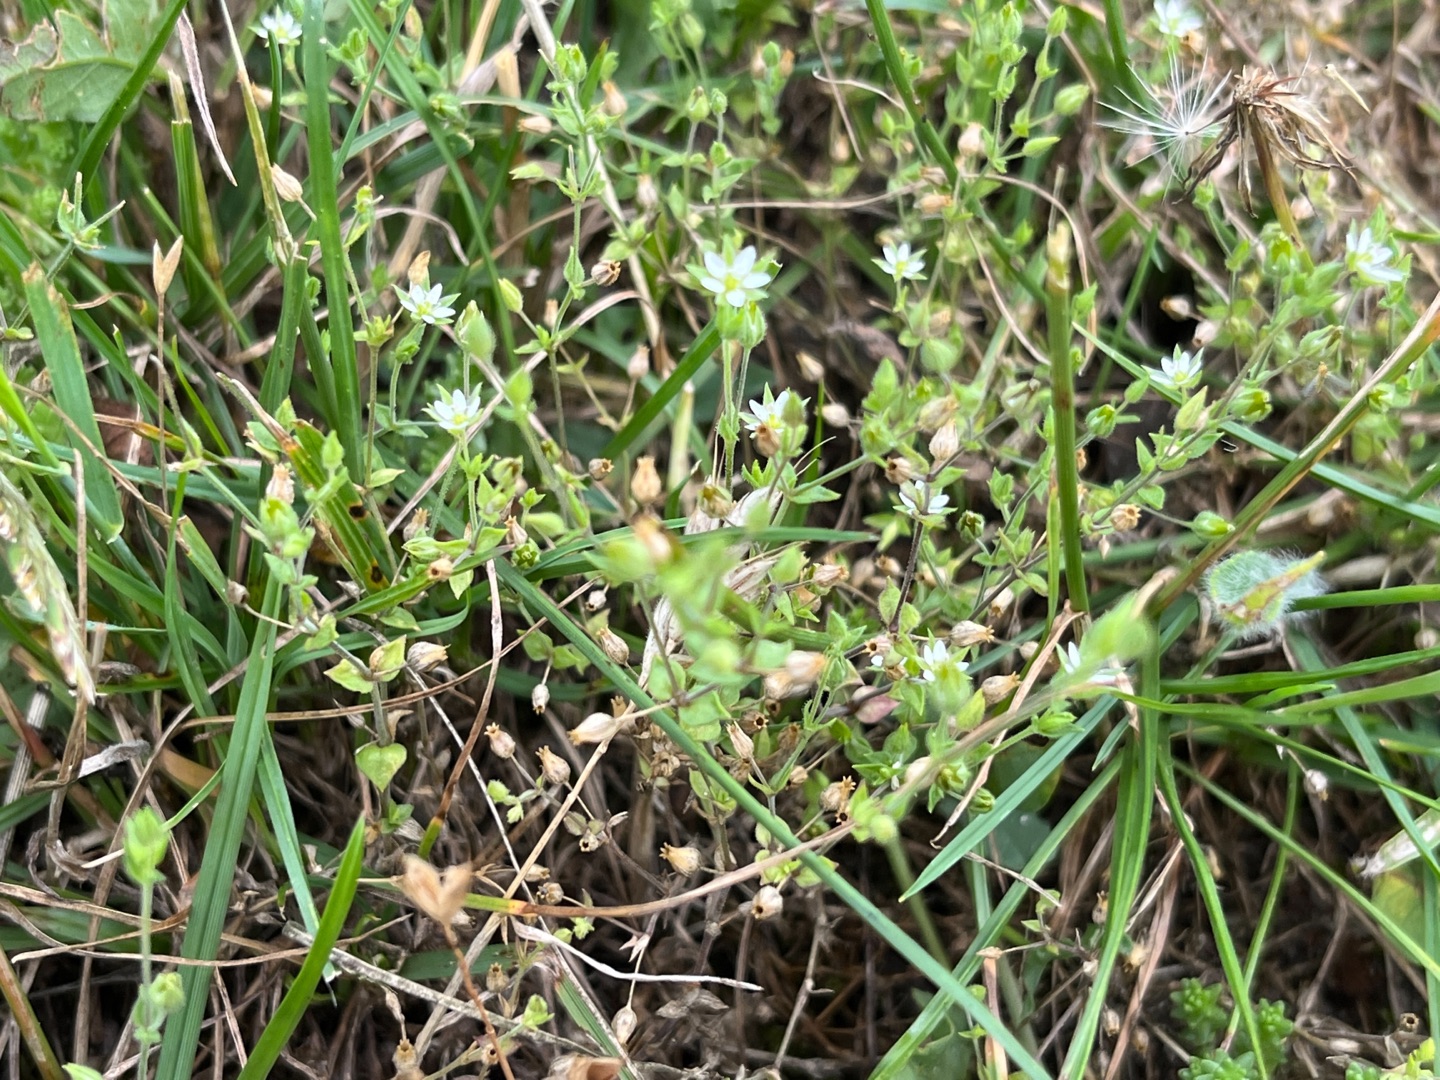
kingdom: Plantae
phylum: Tracheophyta
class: Magnoliopsida
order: Caryophyllales
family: Caryophyllaceae
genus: Arenaria
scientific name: Arenaria serpyllifolia
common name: Almindelig markarve
